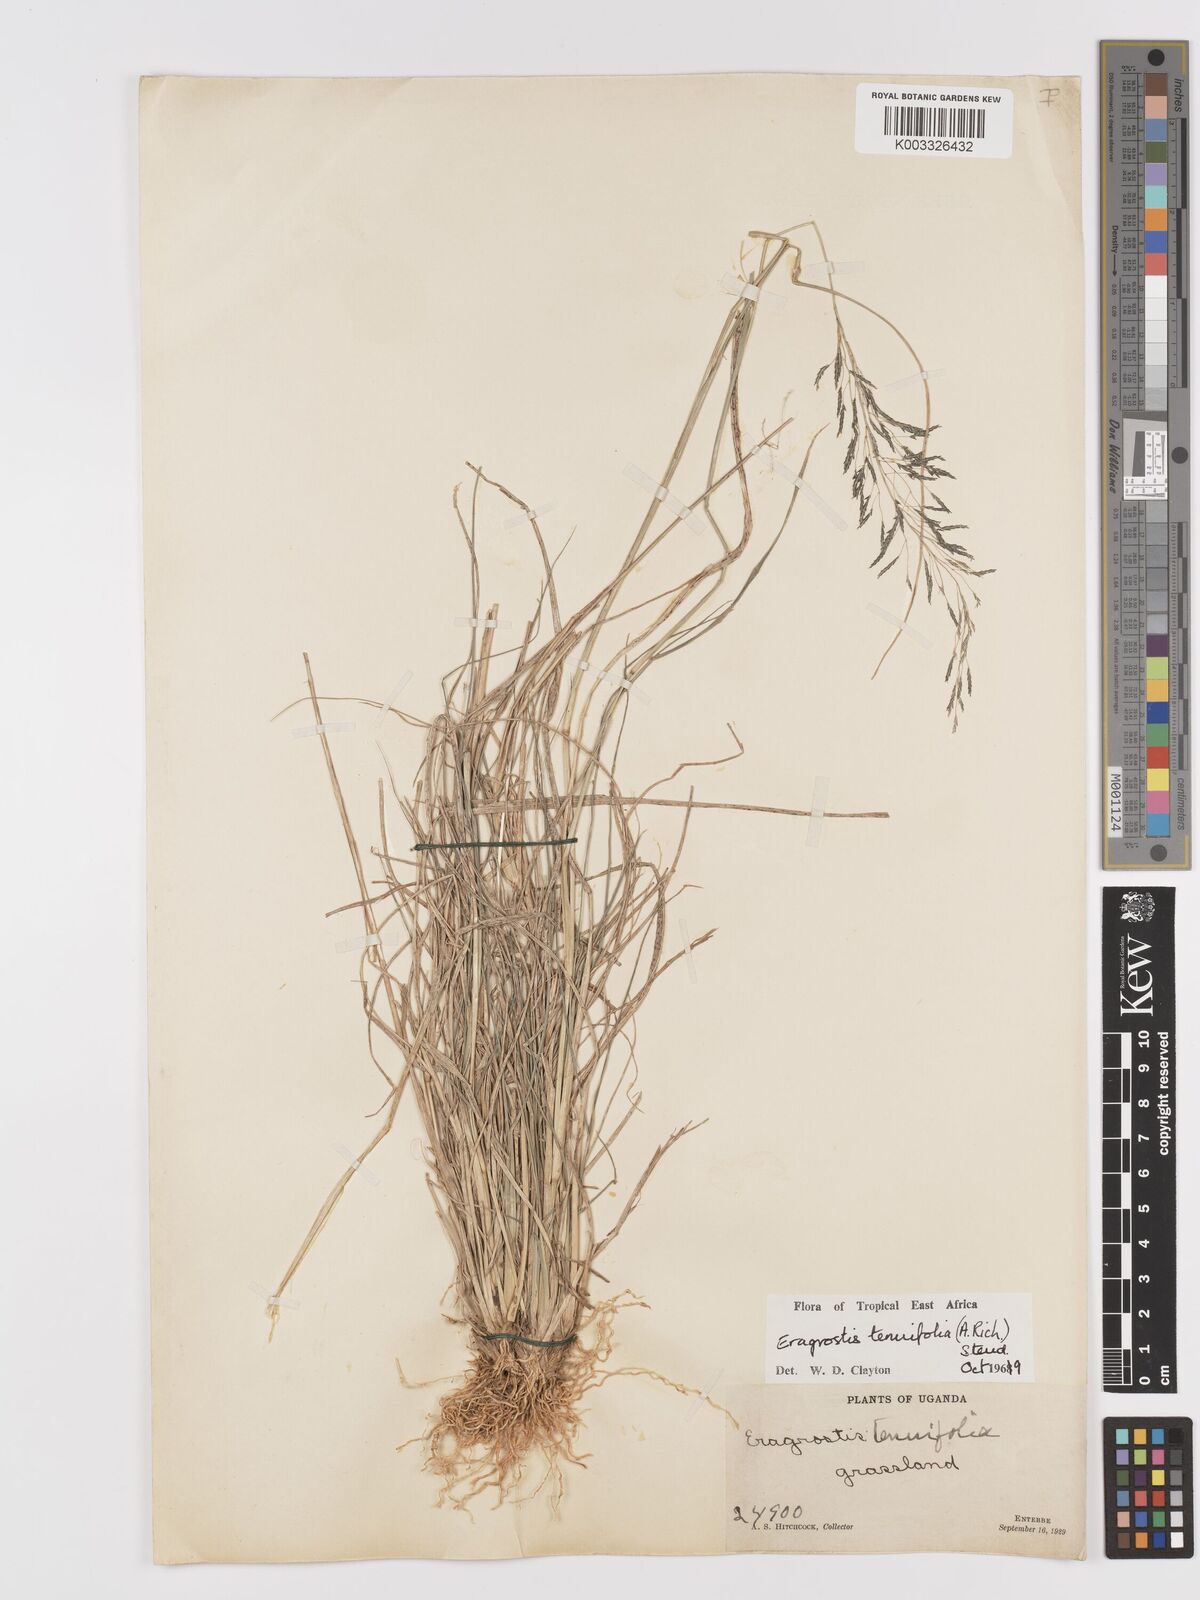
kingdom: Plantae
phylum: Tracheophyta
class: Liliopsida
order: Poales
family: Poaceae
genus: Eragrostis
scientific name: Eragrostis tenuifolia
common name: Elastic grass
